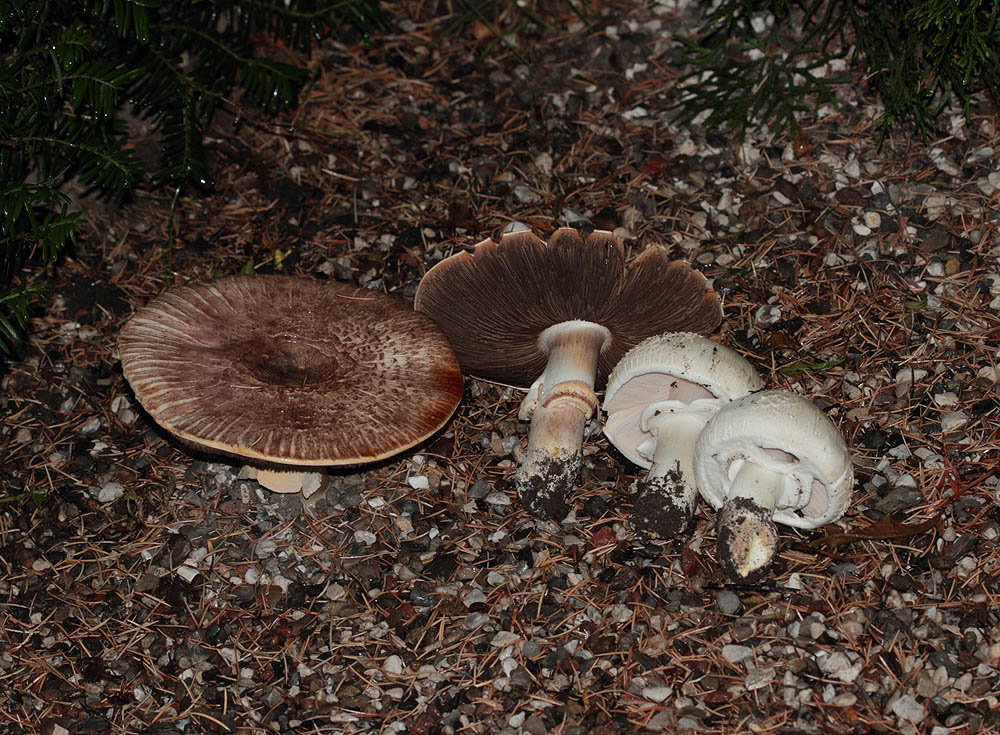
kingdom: Fungi
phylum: Basidiomycota
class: Agaricomycetes
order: Agaricales
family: Agaricaceae
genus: Agaricus
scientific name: Agaricus xanthodermus
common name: karbol-champignon
